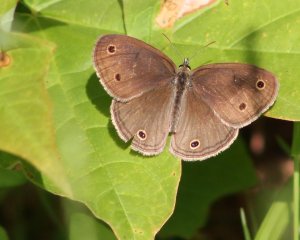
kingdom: Animalia
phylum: Arthropoda
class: Insecta
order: Lepidoptera
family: Nymphalidae
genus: Euptychia
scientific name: Euptychia cymela
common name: Little Wood Satyr
